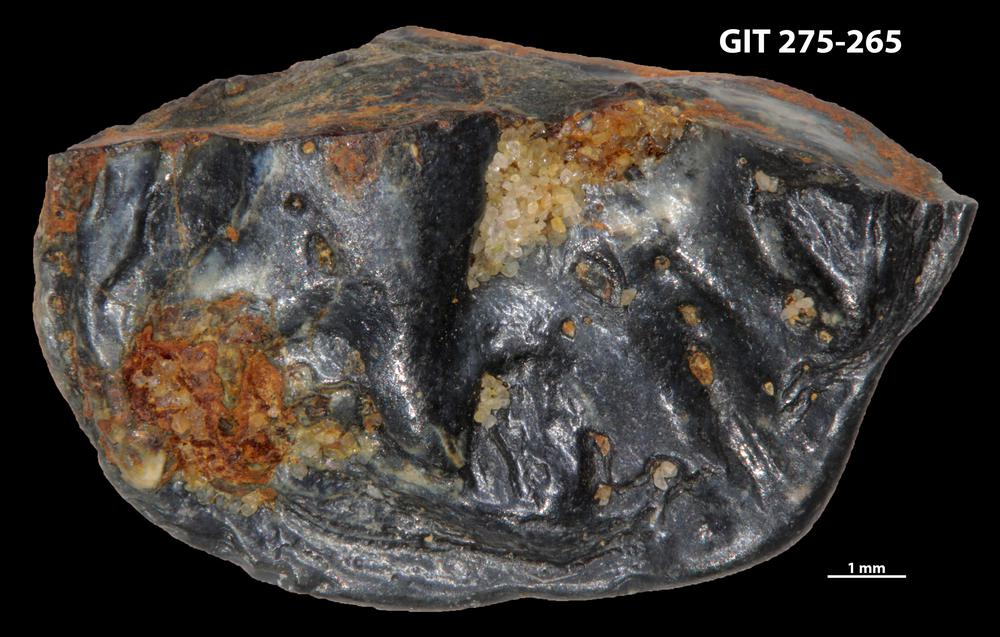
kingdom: Animalia
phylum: Porifera
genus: Ungula
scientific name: Ungula ingricus
